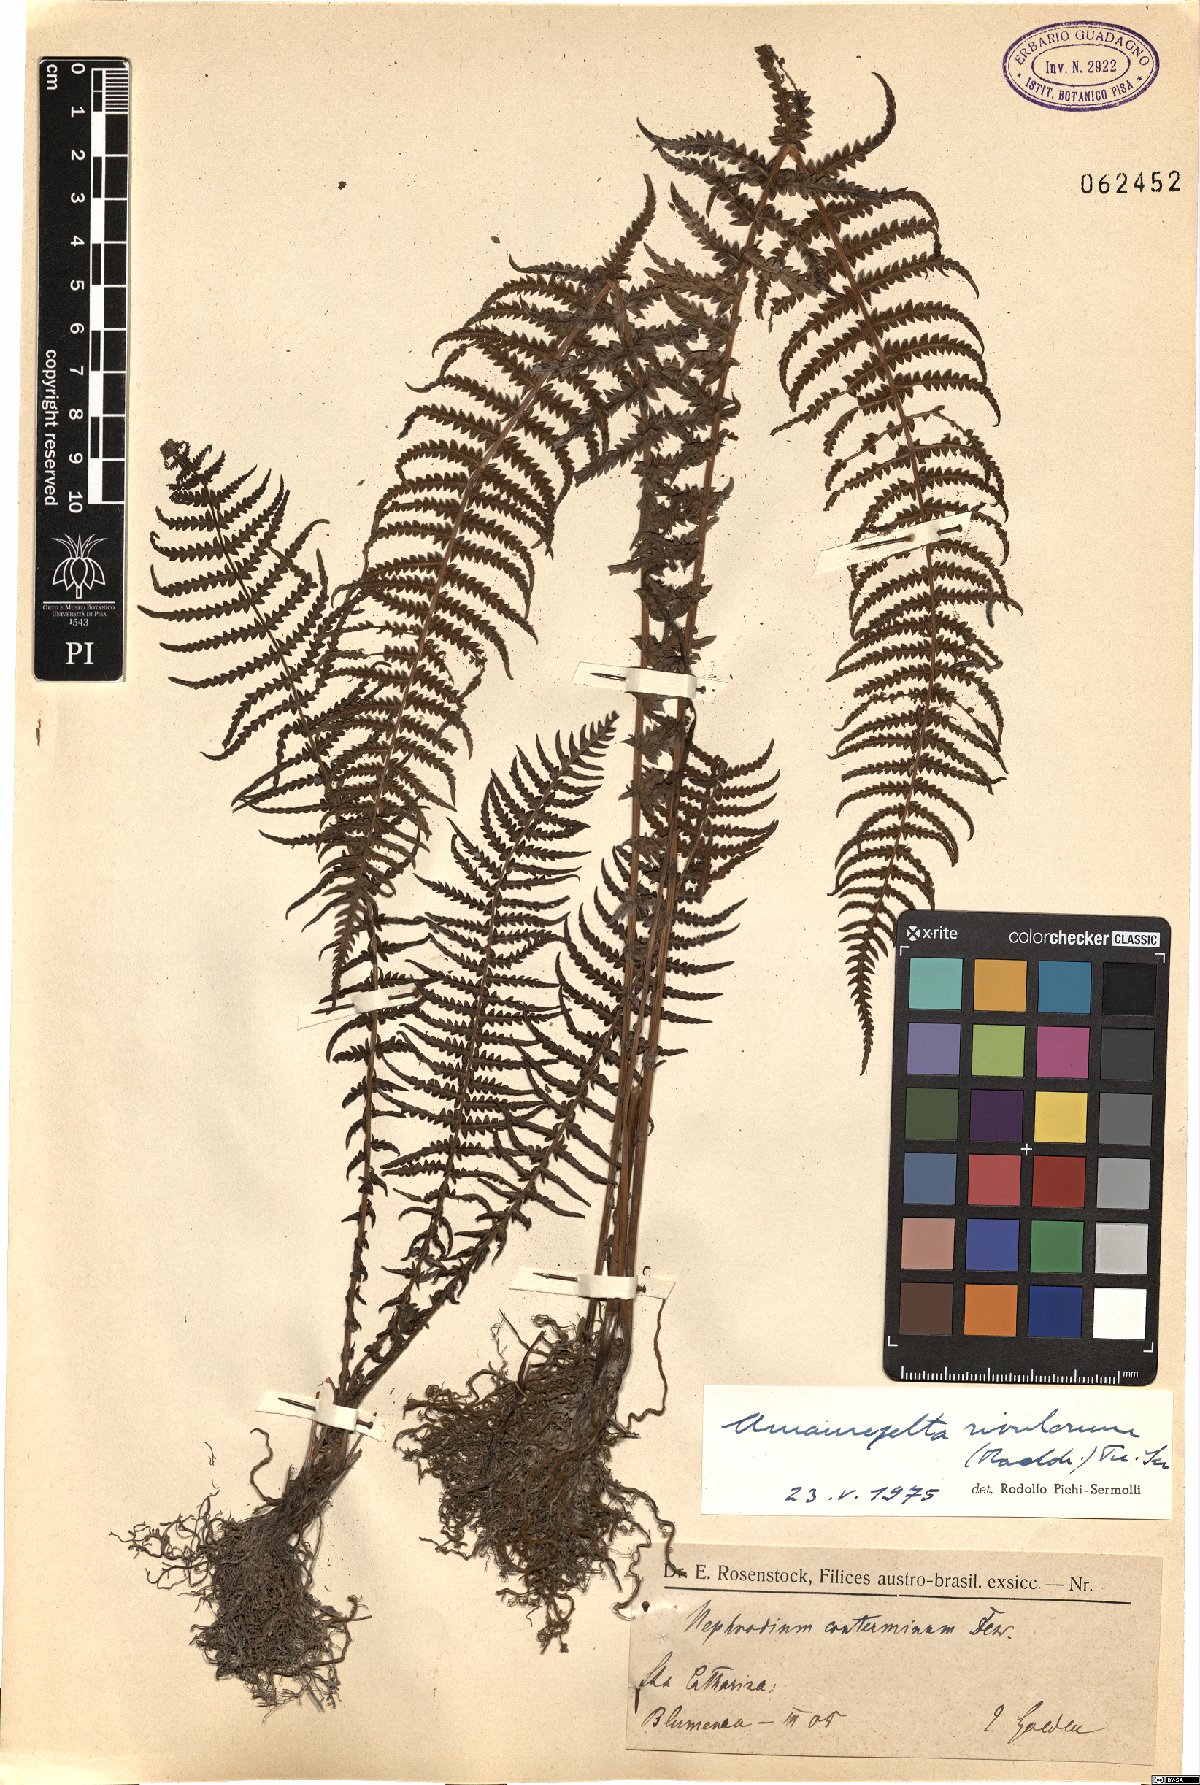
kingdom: Plantae
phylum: Tracheophyta
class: Polypodiopsida
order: Polypodiales
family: Thelypteridaceae
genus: Amauropelta
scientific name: Amauropelta opposita
